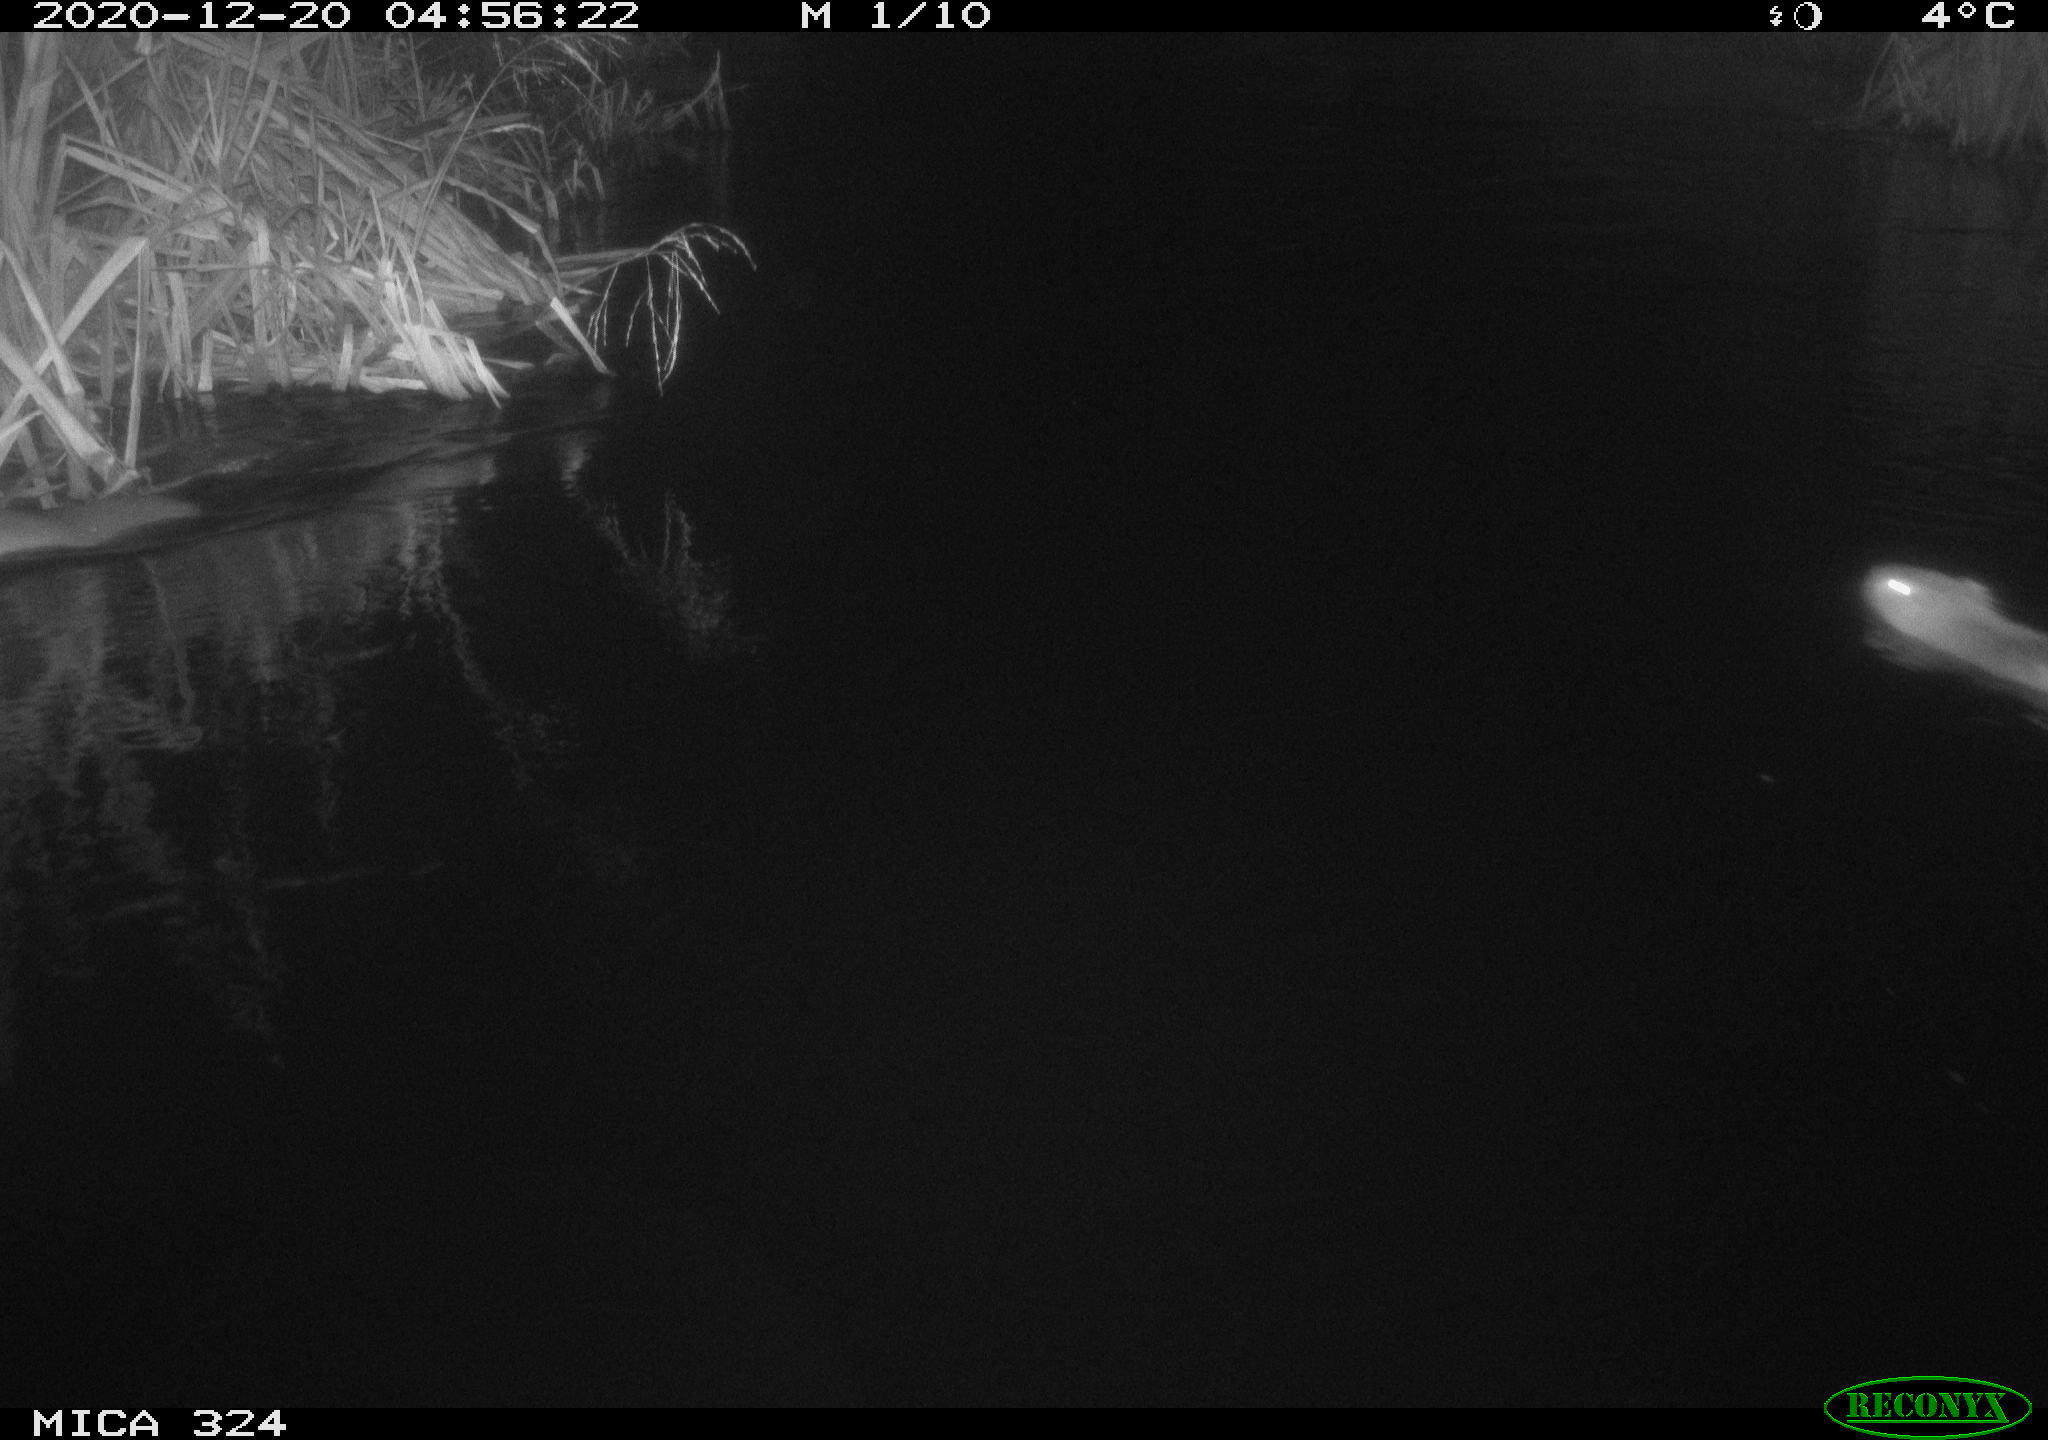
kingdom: Animalia
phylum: Chordata
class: Mammalia
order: Rodentia
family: Myocastoridae
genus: Myocastor
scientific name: Myocastor coypus
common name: Coypu
